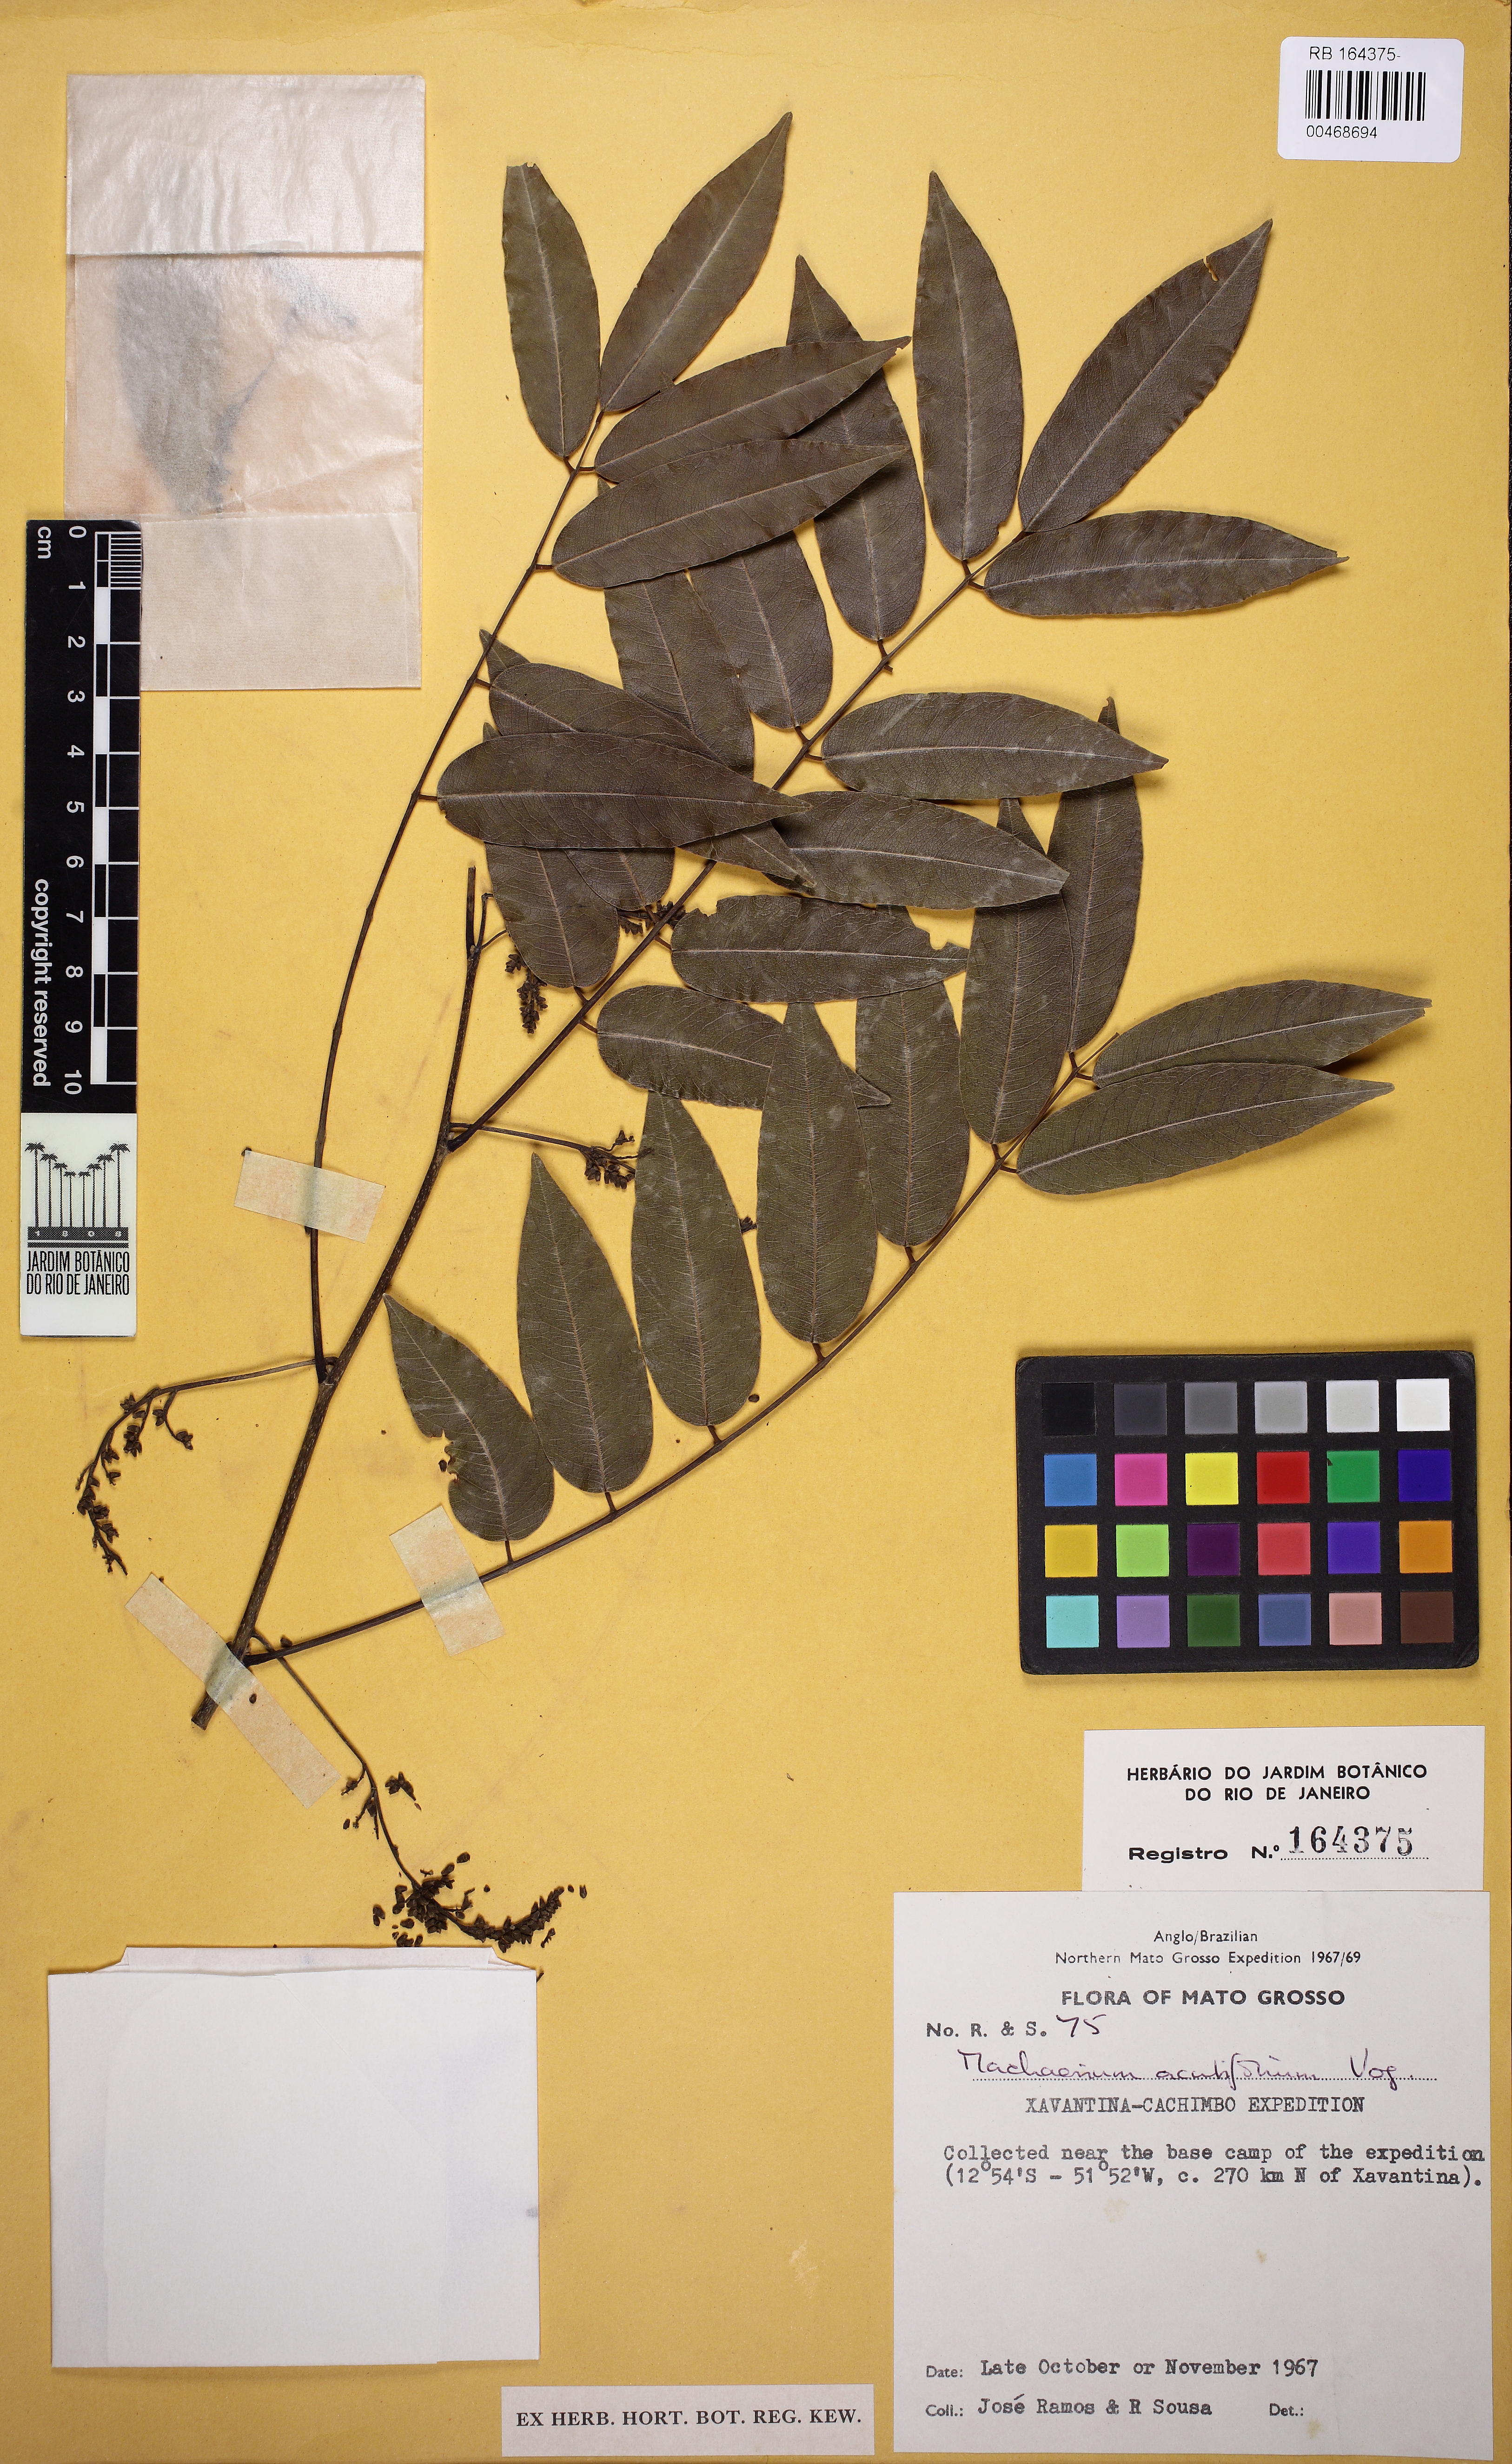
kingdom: Plantae
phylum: Tracheophyta
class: Magnoliopsida
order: Fabales
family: Fabaceae
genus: Machaerium
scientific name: Machaerium acutifolium
